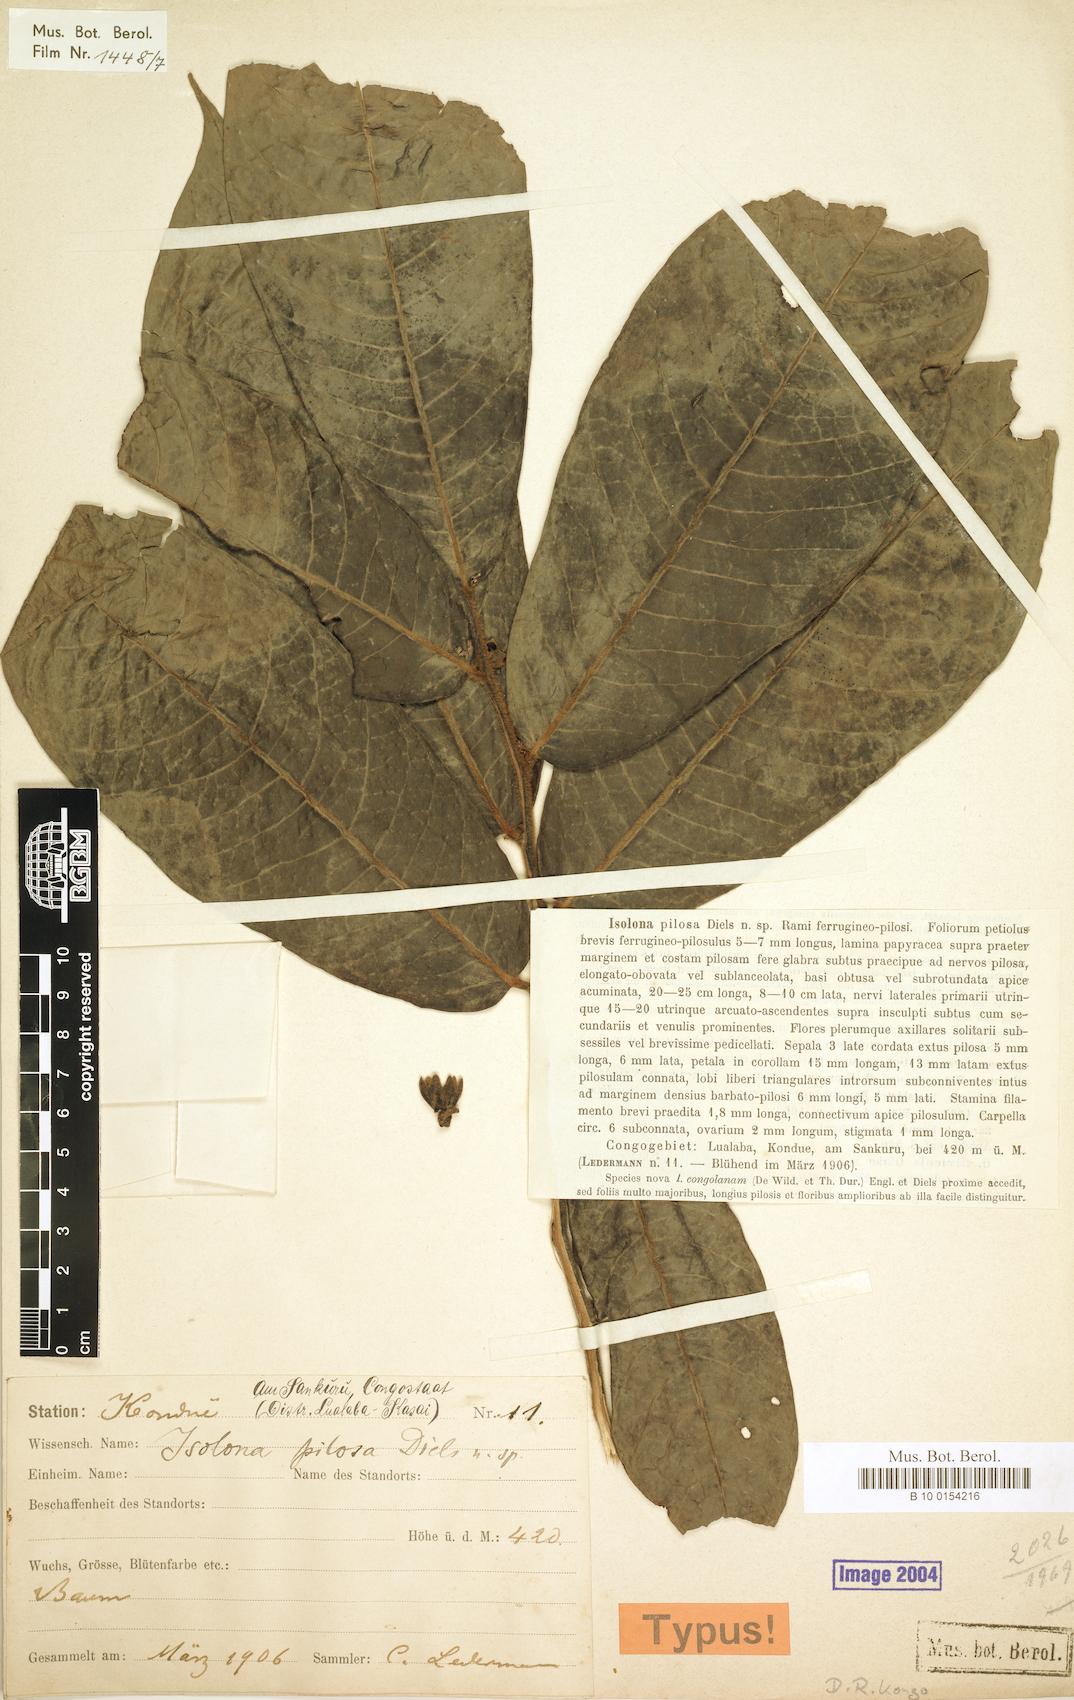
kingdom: Plantae
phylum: Tracheophyta
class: Magnoliopsida
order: Magnoliales
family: Annonaceae
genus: Isolona
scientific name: Isolona pilosa
